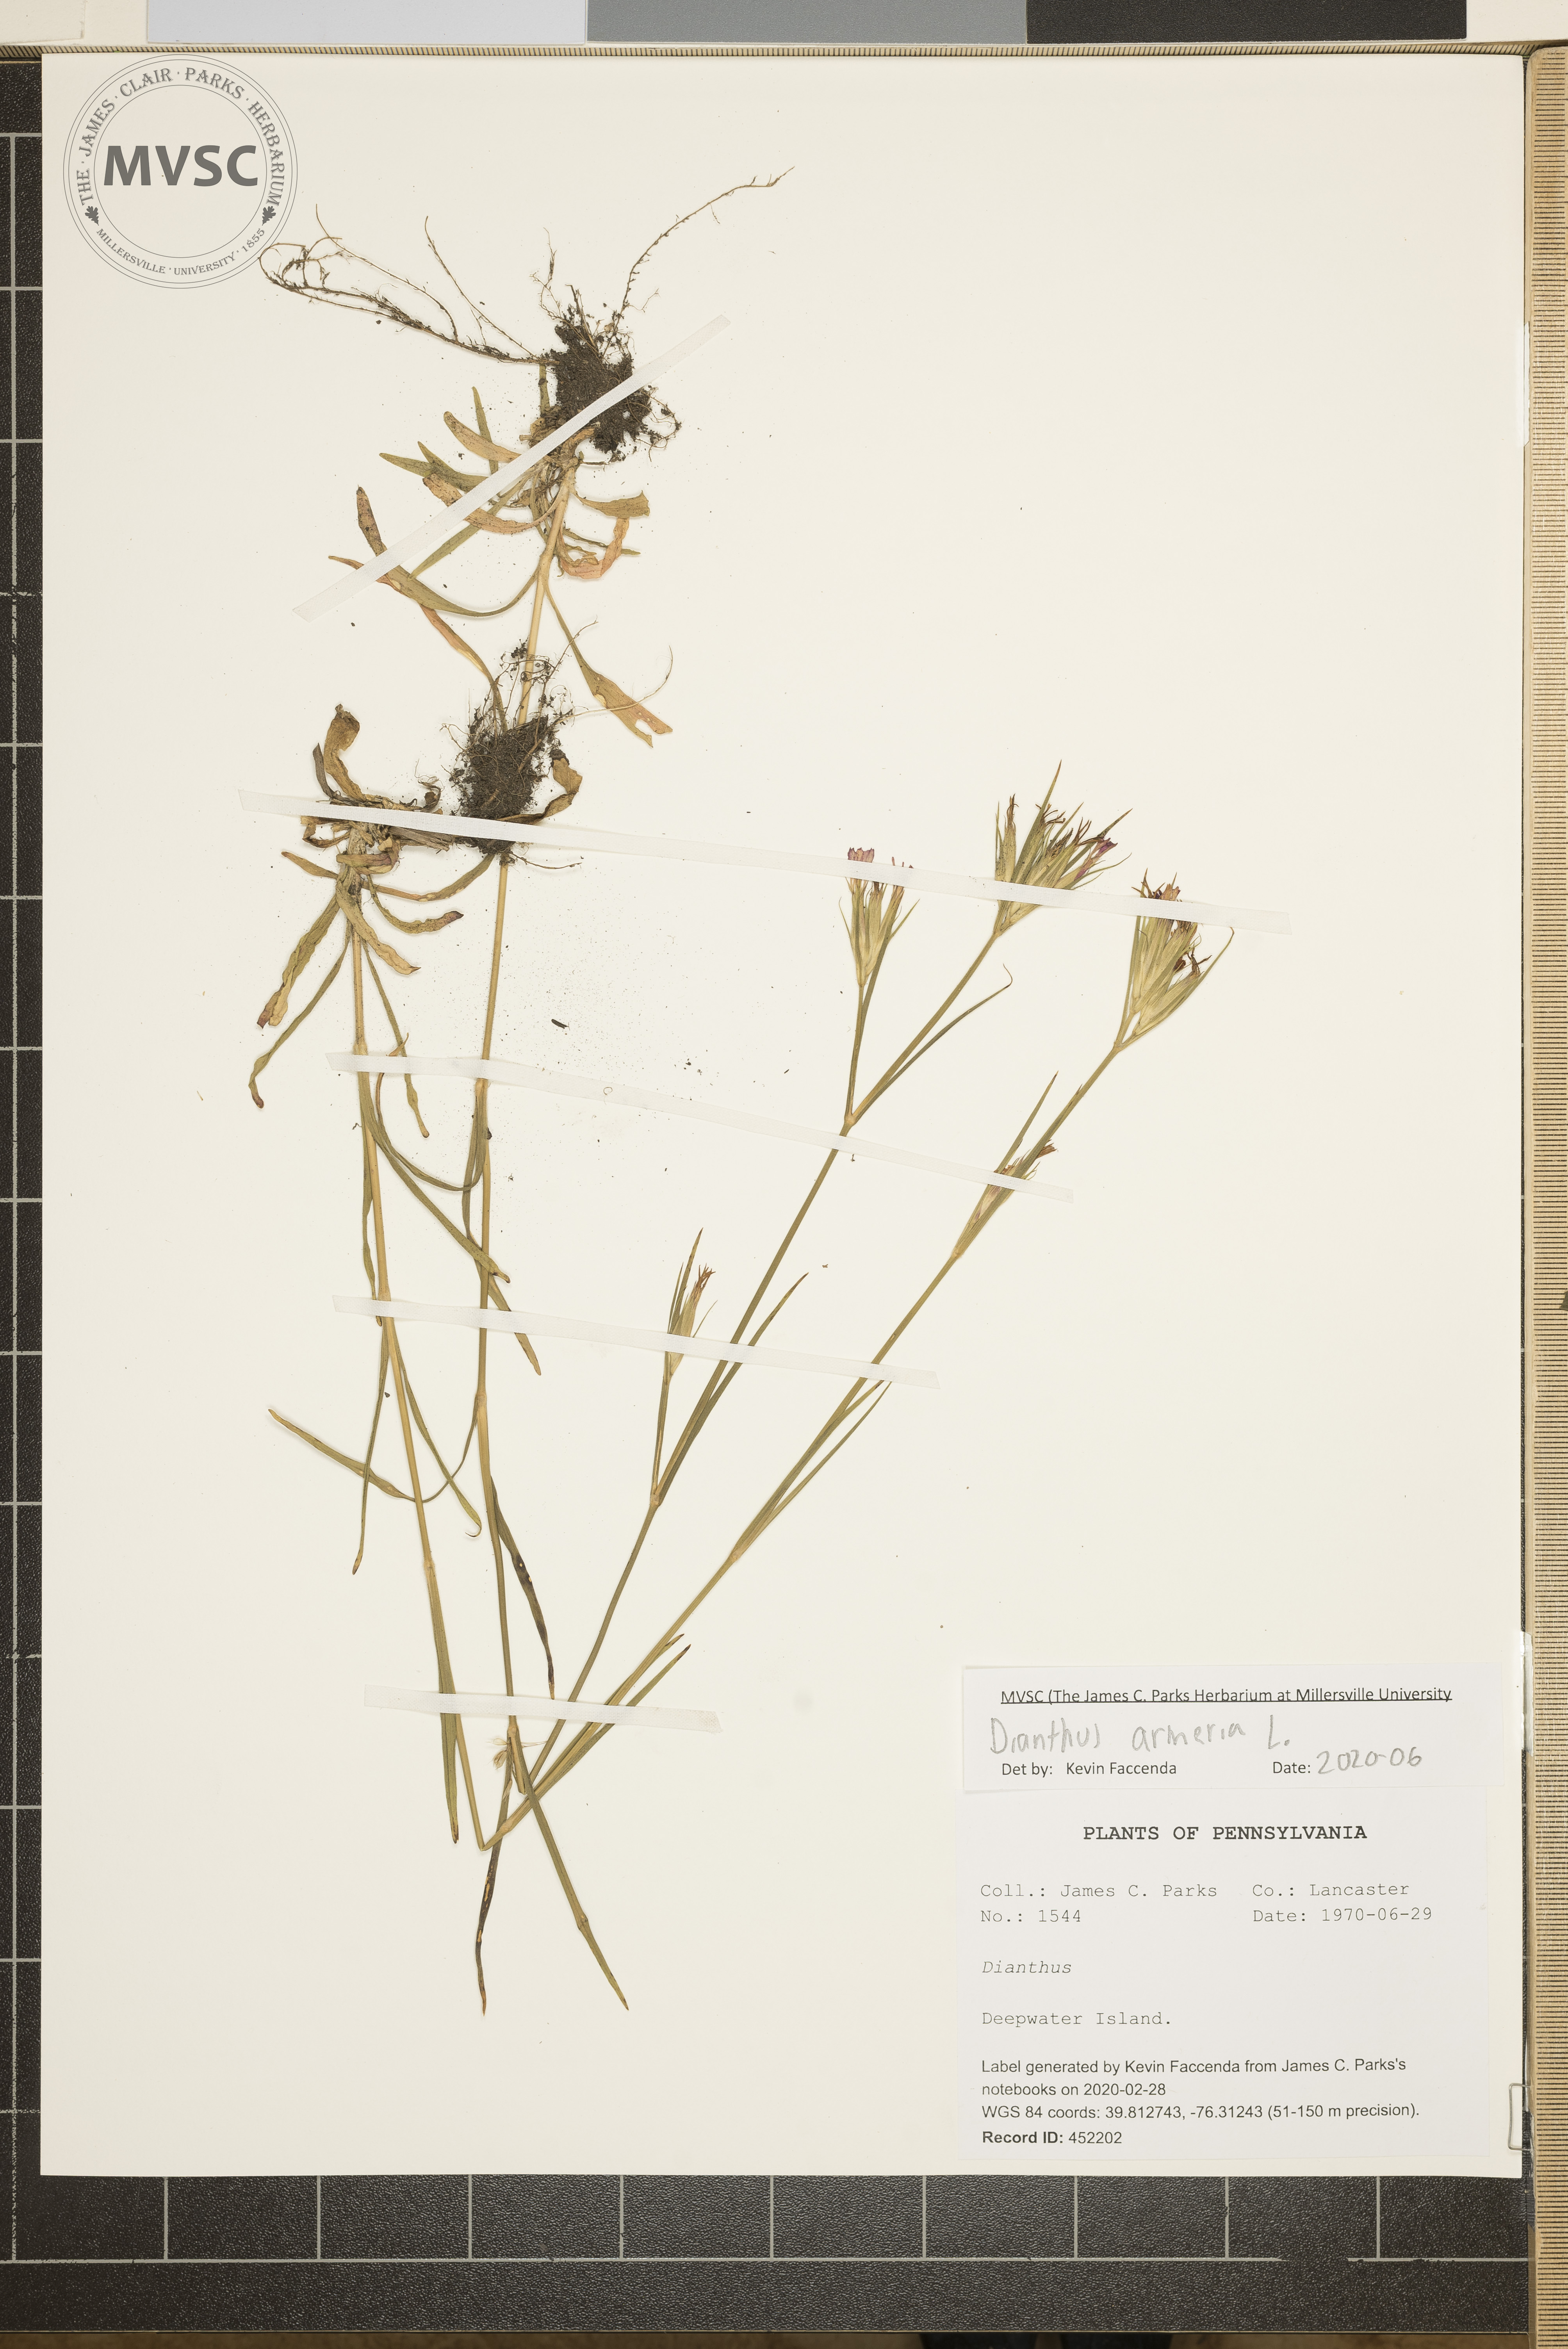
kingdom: Plantae
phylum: Tracheophyta
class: Magnoliopsida
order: Caryophyllales
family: Caryophyllaceae
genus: Dianthus
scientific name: Dianthus armeria
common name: Deptford pink
